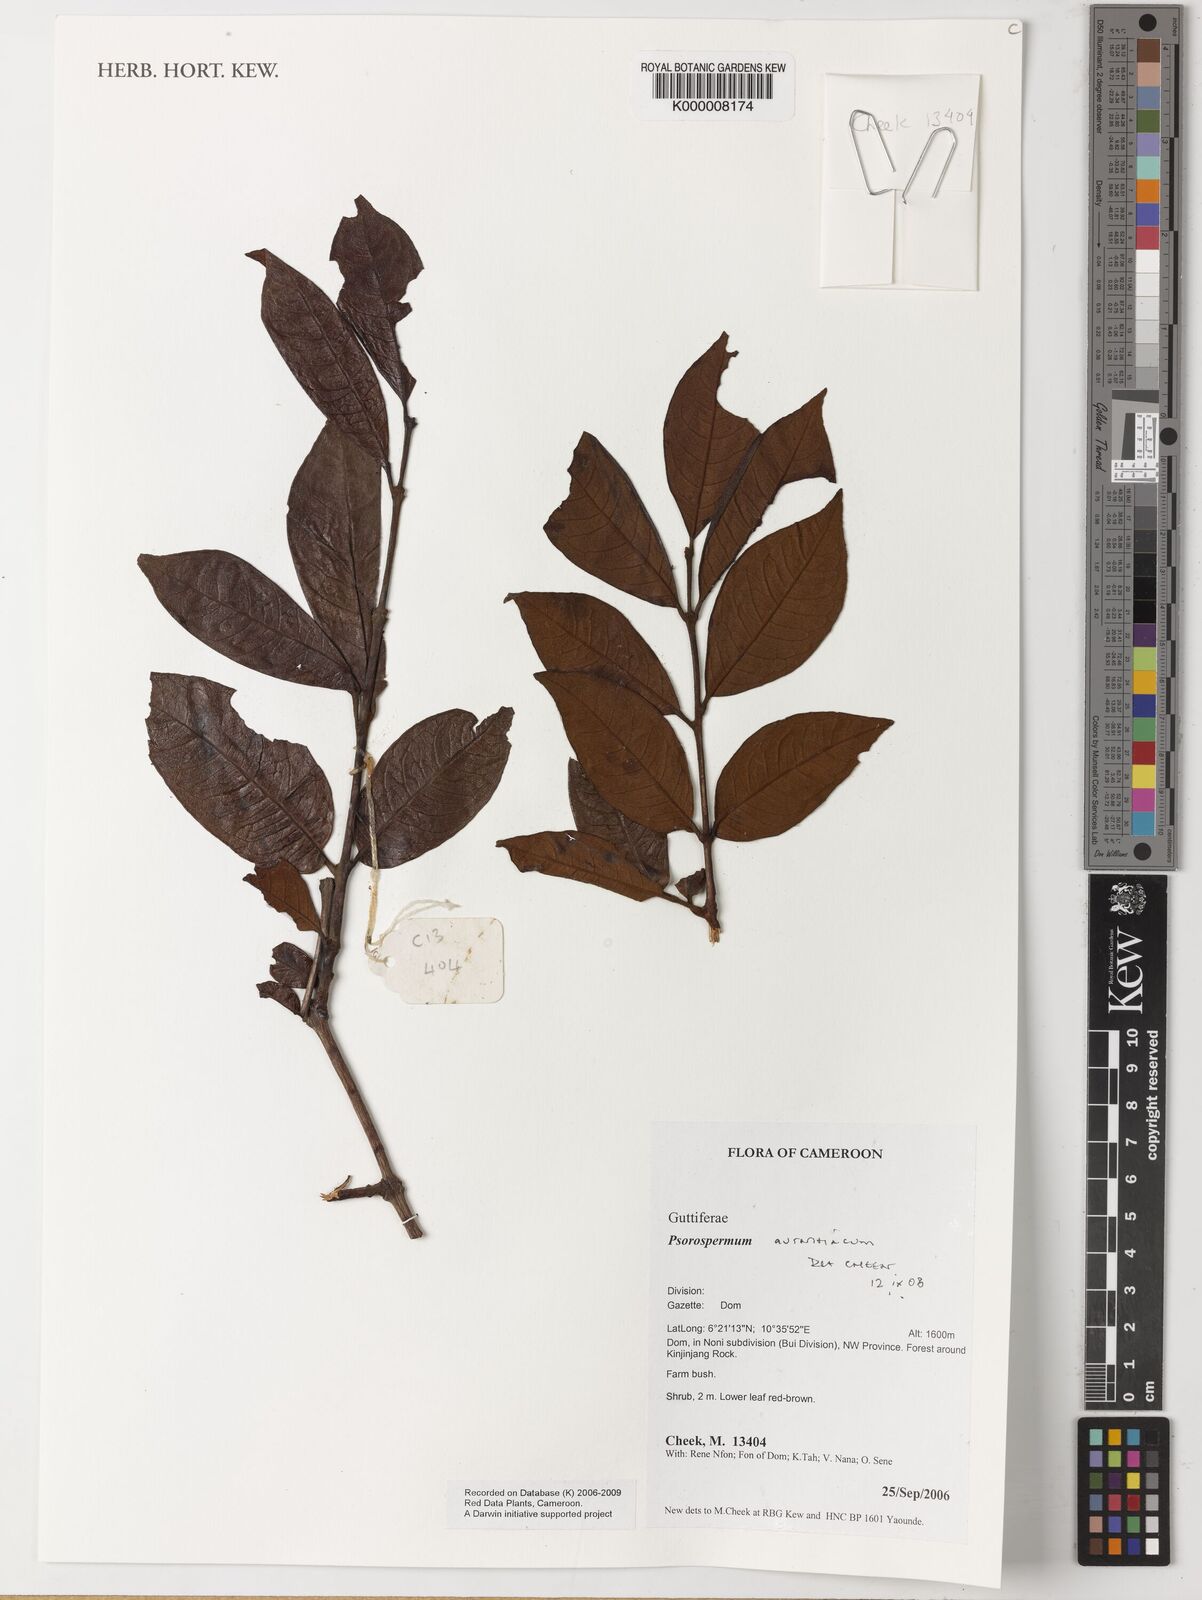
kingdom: Plantae
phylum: Tracheophyta
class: Magnoliopsida
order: Malpighiales
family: Hypericaceae
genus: Psorospermum
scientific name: Psorospermum aurantiacum
